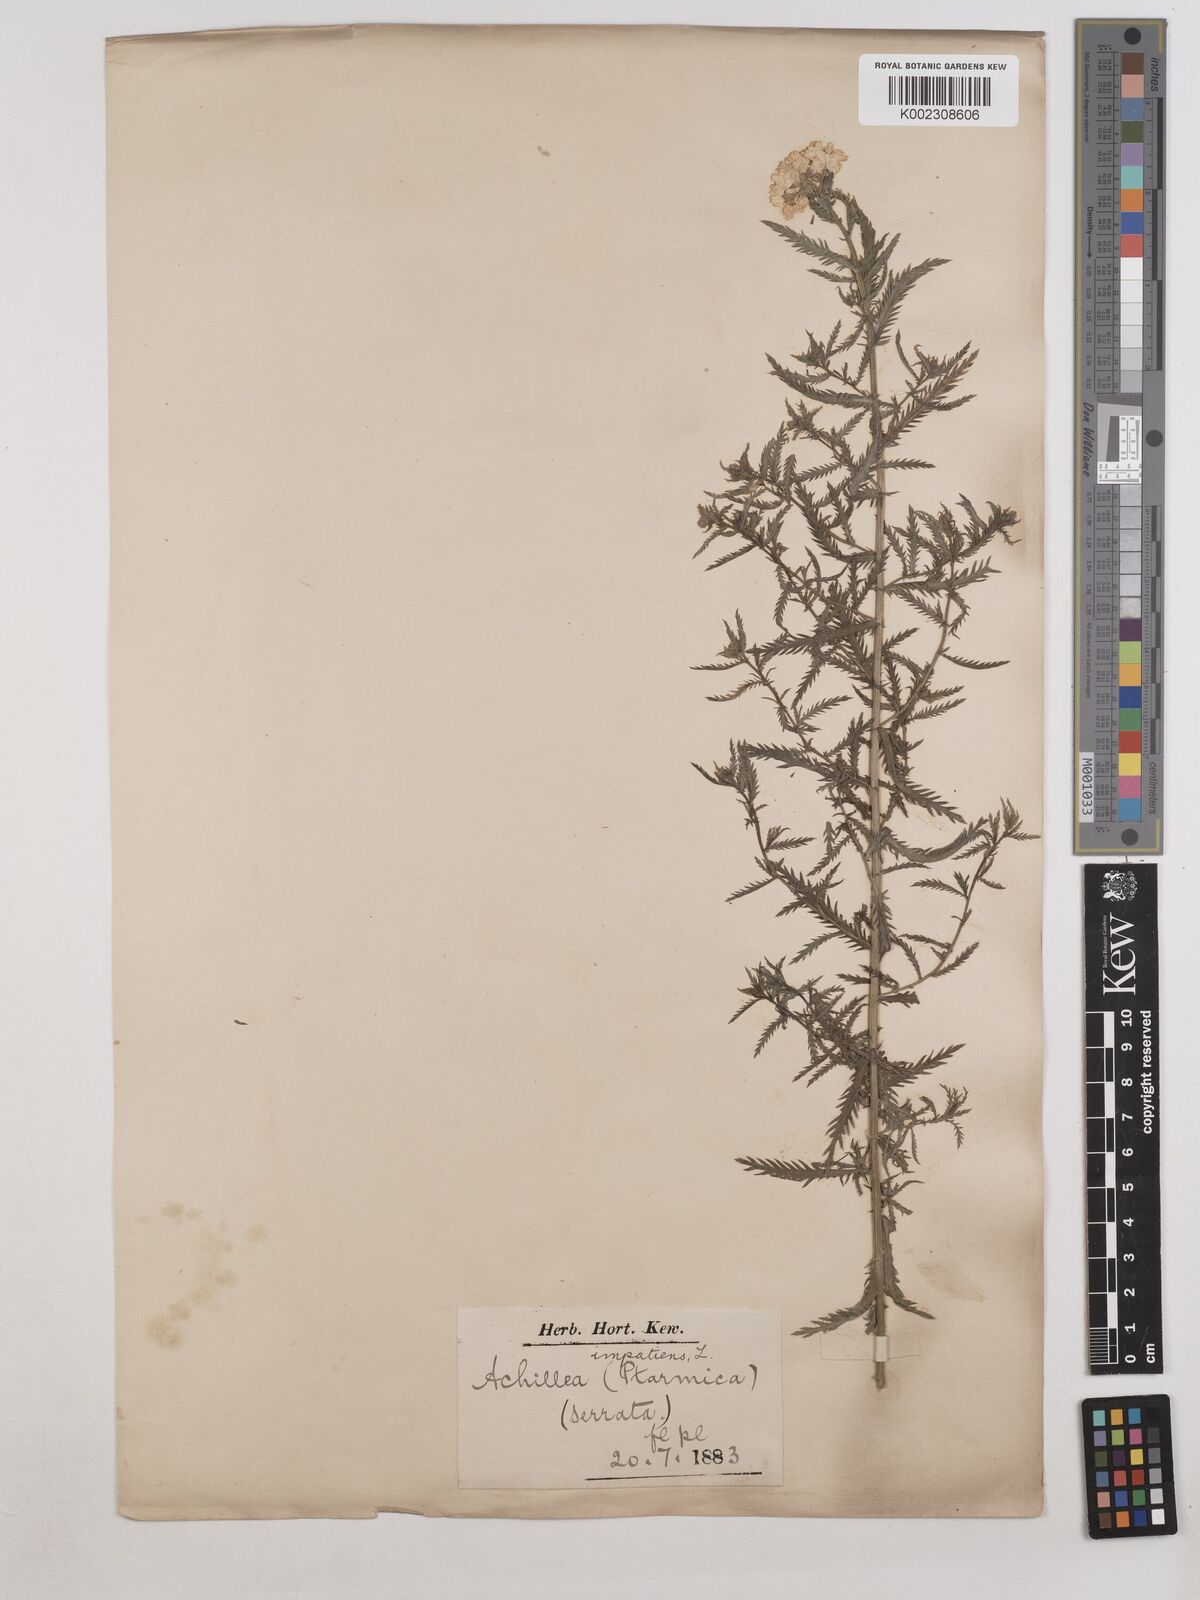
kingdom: Plantae
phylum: Tracheophyta
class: Magnoliopsida
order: Asterales
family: Asteraceae
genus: Achillea
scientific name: Achillea impatiens
